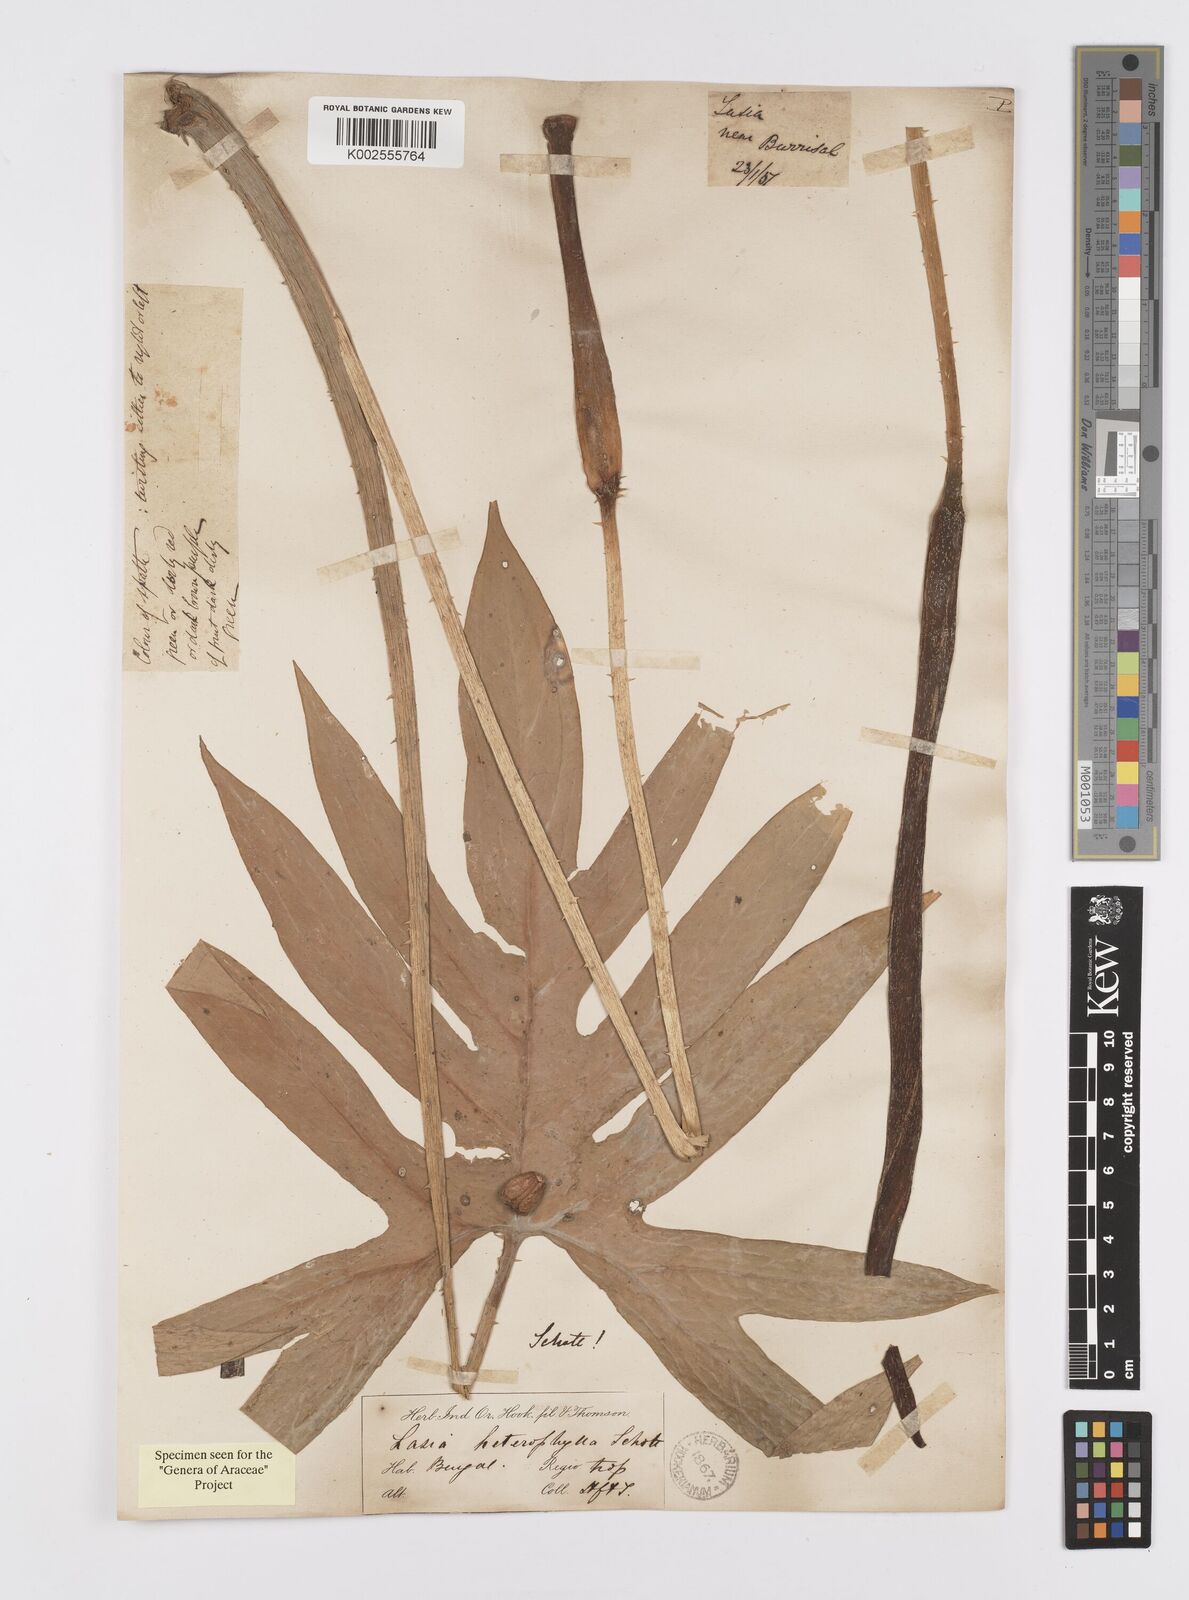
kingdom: Plantae
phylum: Tracheophyta
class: Liliopsida
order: Alismatales
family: Araceae
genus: Lasia
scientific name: Lasia spinosa
